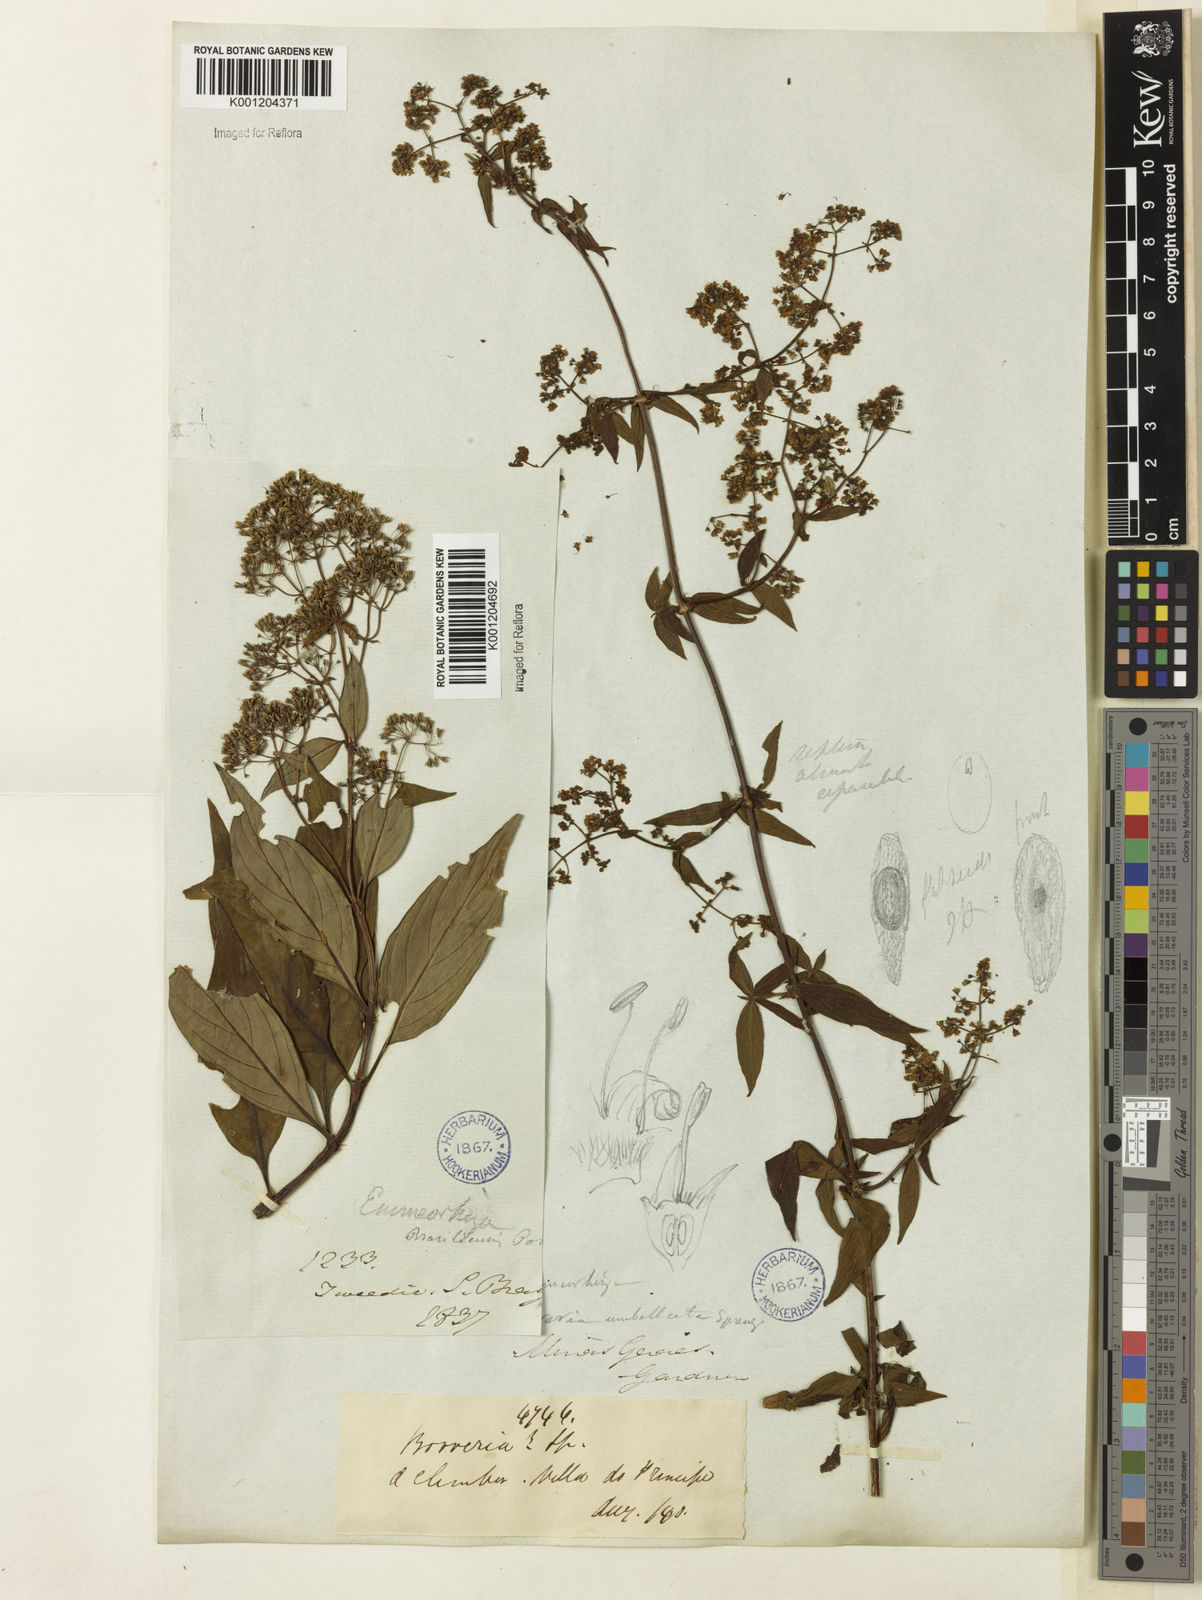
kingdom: Plantae
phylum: Tracheophyta
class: Magnoliopsida
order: Gentianales
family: Rubiaceae
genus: Emmeorhiza
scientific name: Emmeorhiza umbellata
